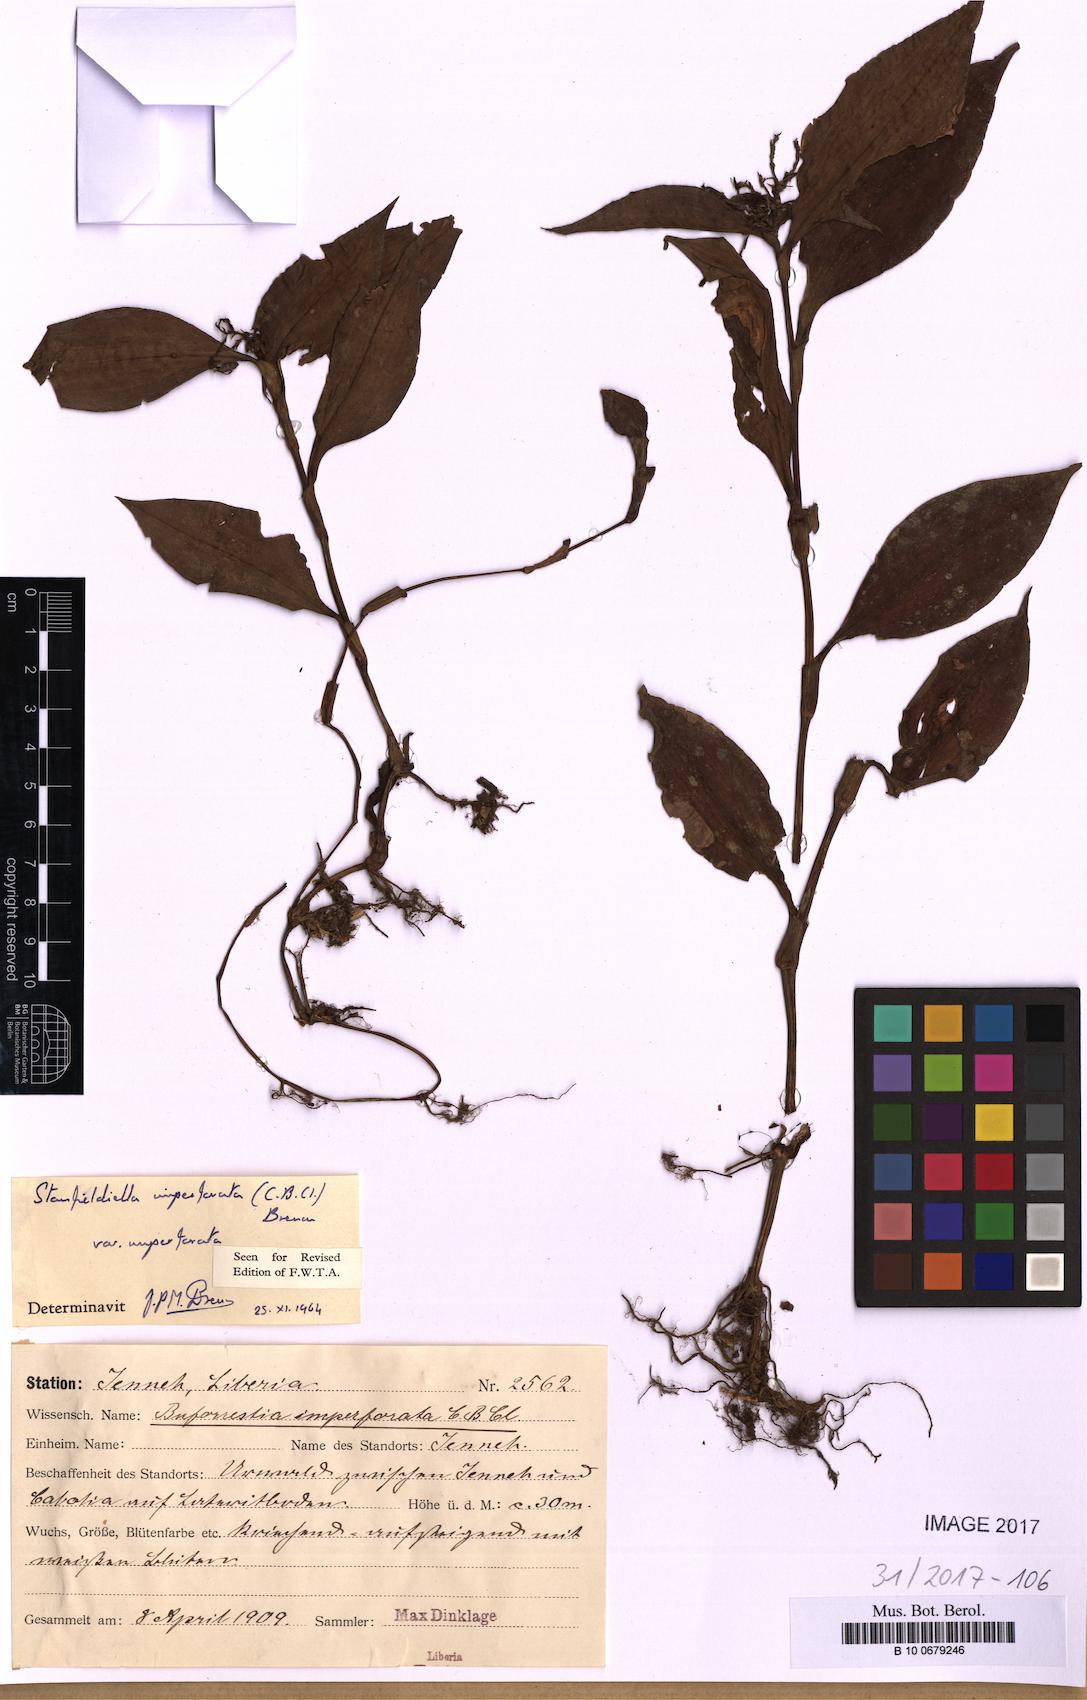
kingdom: Plantae
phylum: Tracheophyta
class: Liliopsida
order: Commelinales
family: Commelinaceae
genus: Stanfieldiella
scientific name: Stanfieldiella imperforata
